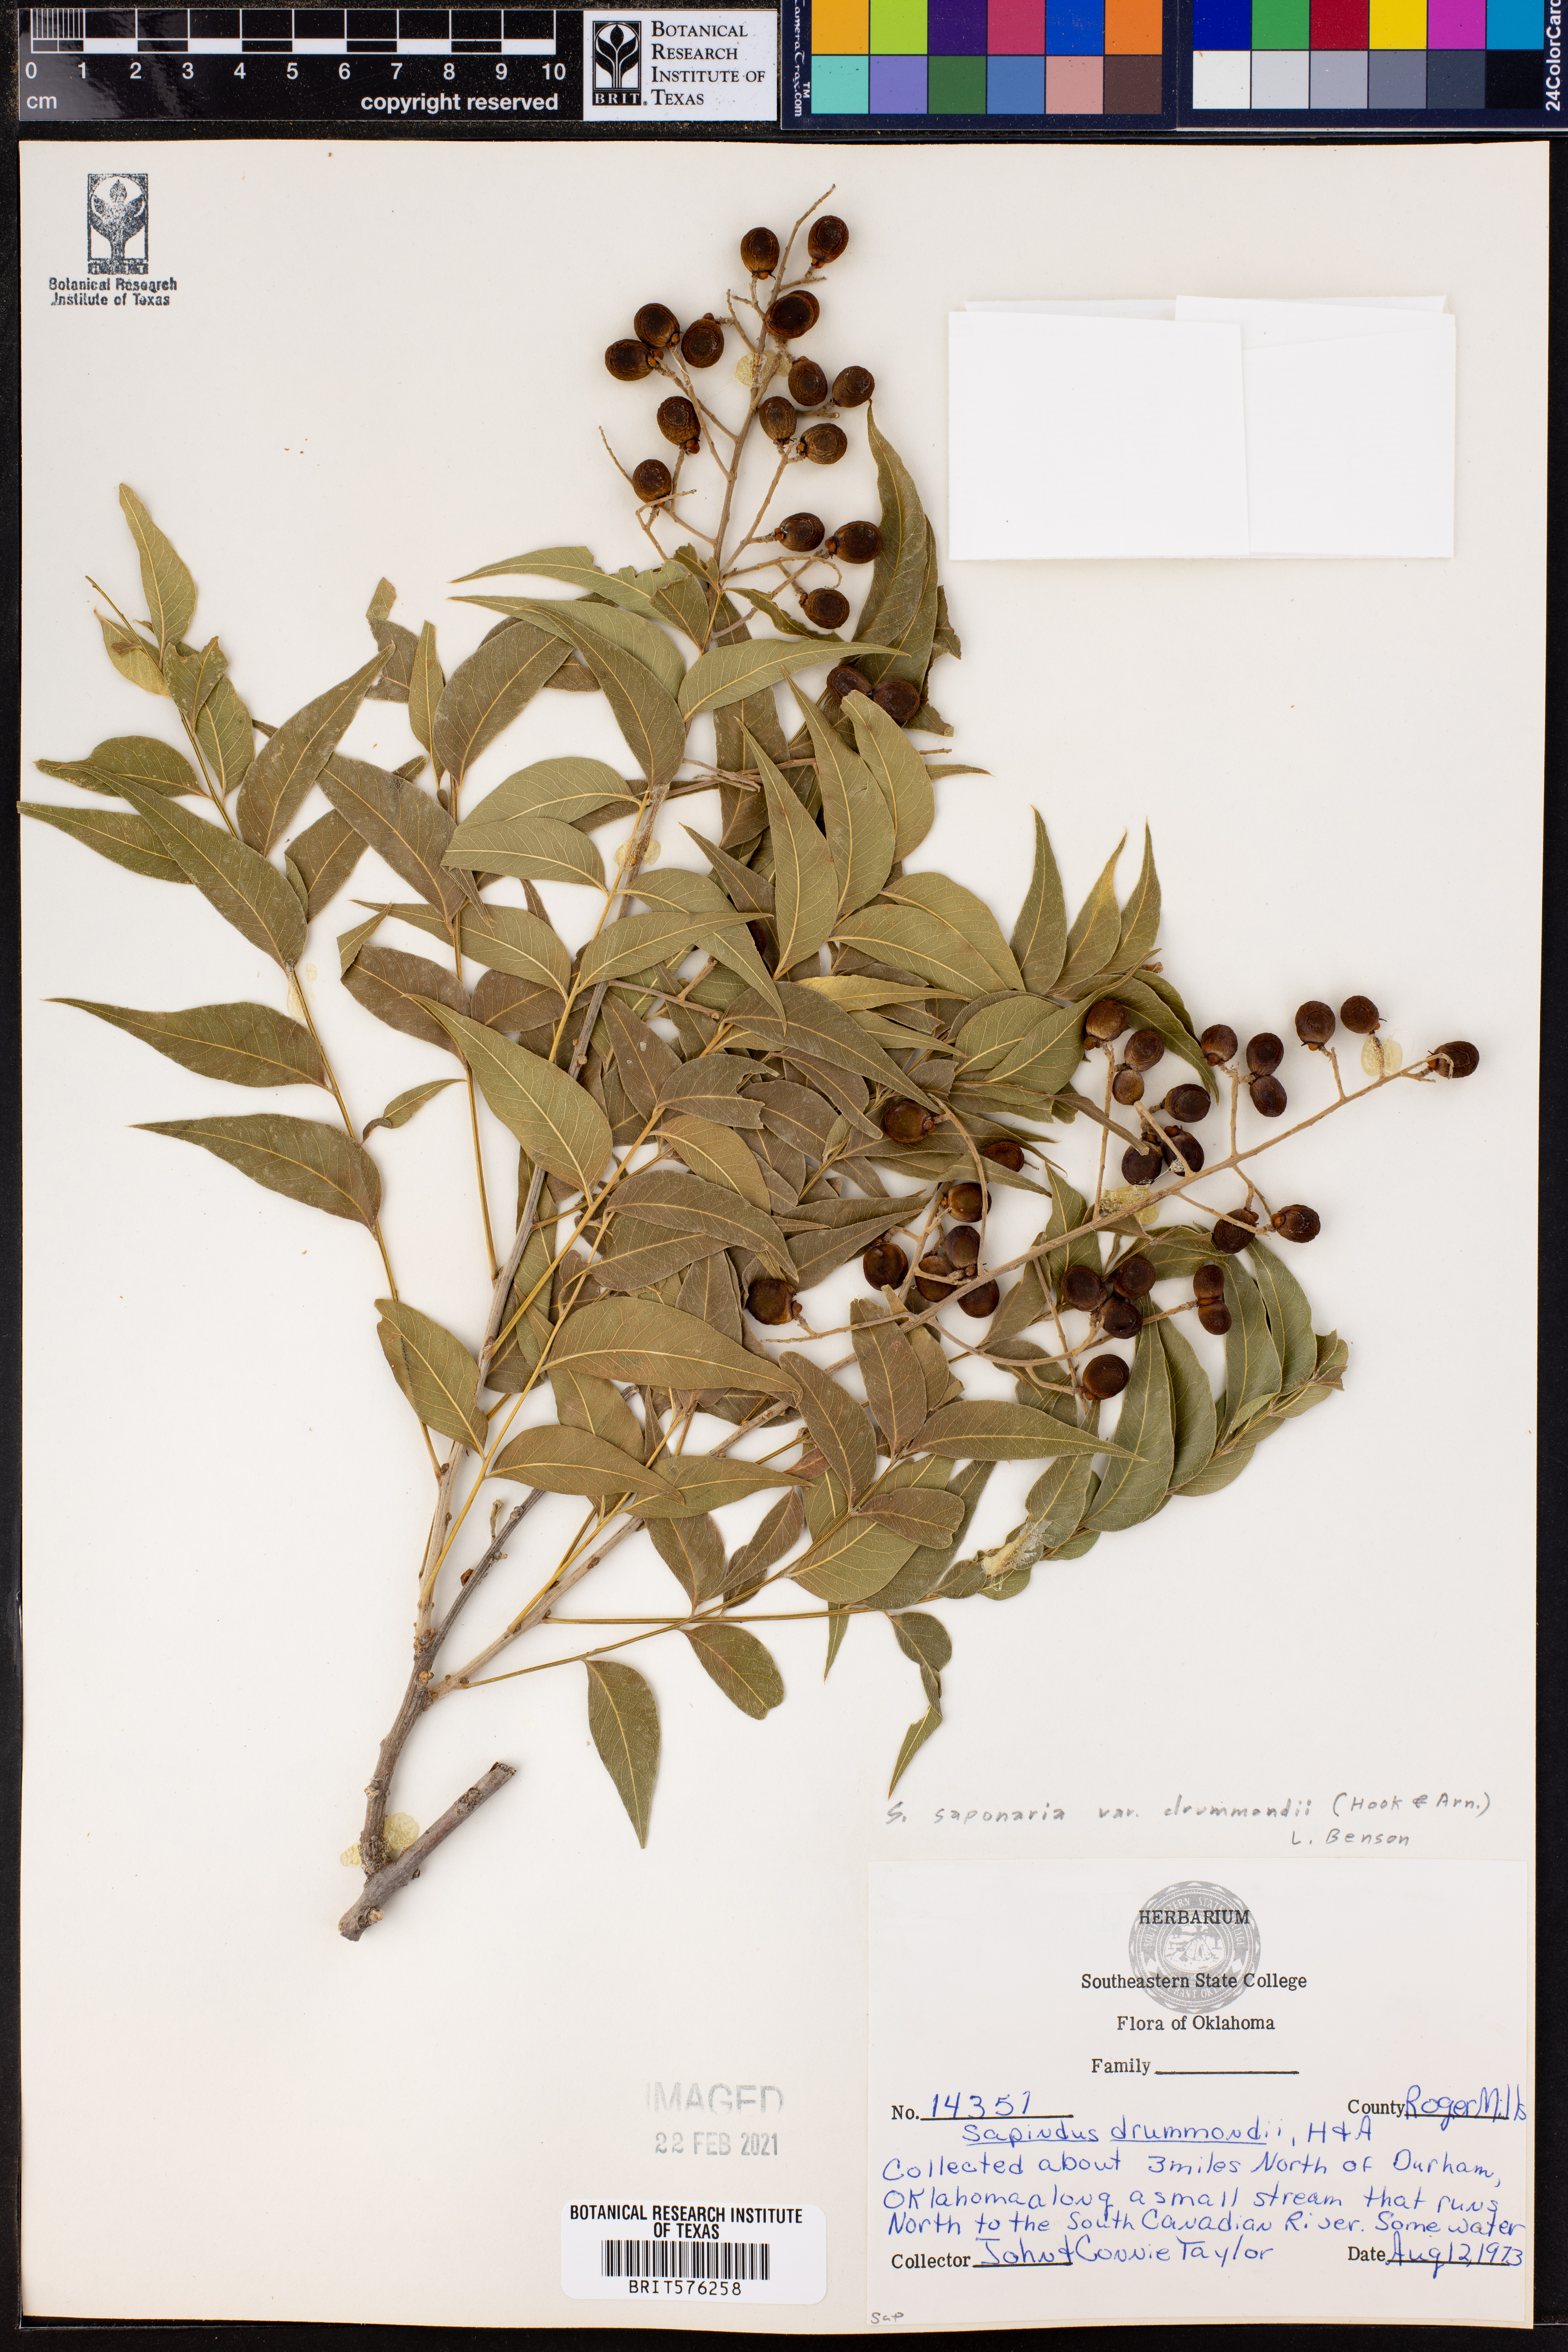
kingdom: Plantae
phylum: Tracheophyta
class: Magnoliopsida
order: Sapindales
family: Sapindaceae
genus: Sapindus
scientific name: Sapindus drummondii
